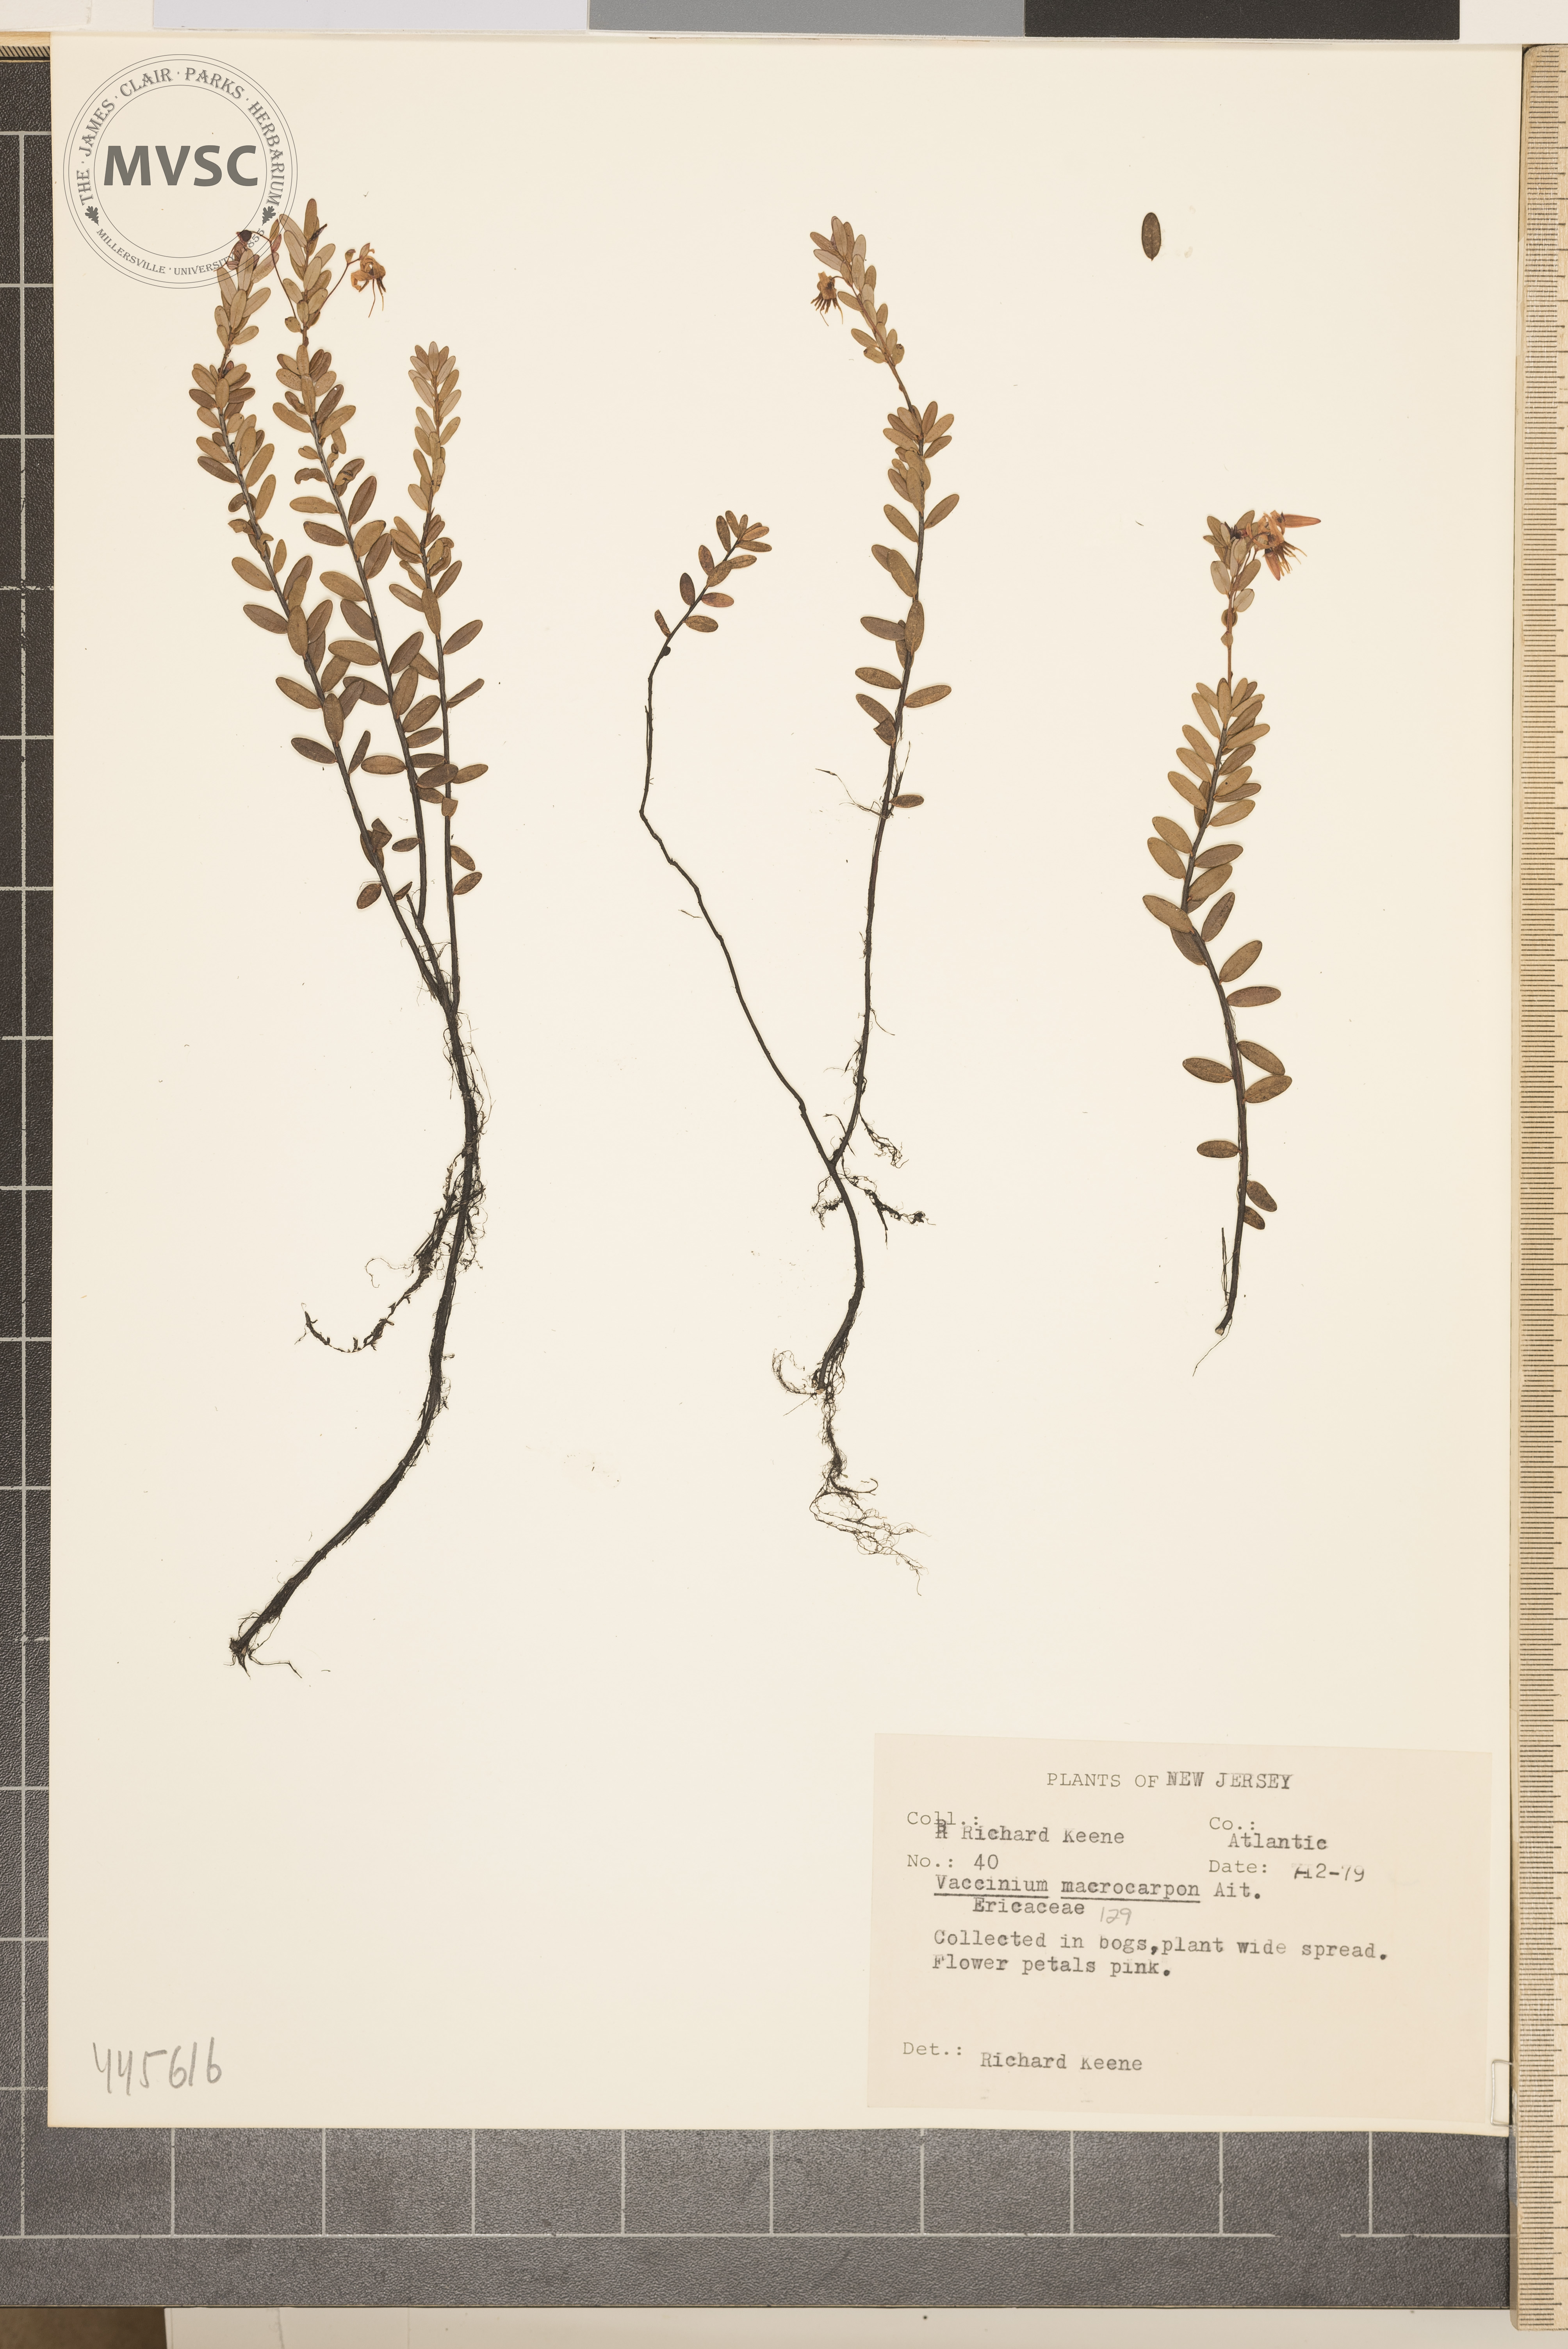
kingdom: Plantae
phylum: Tracheophyta
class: Magnoliopsida
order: Ericales
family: Ericaceae
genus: Vaccinium
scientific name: Vaccinium macrocarpon
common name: American cranberry
